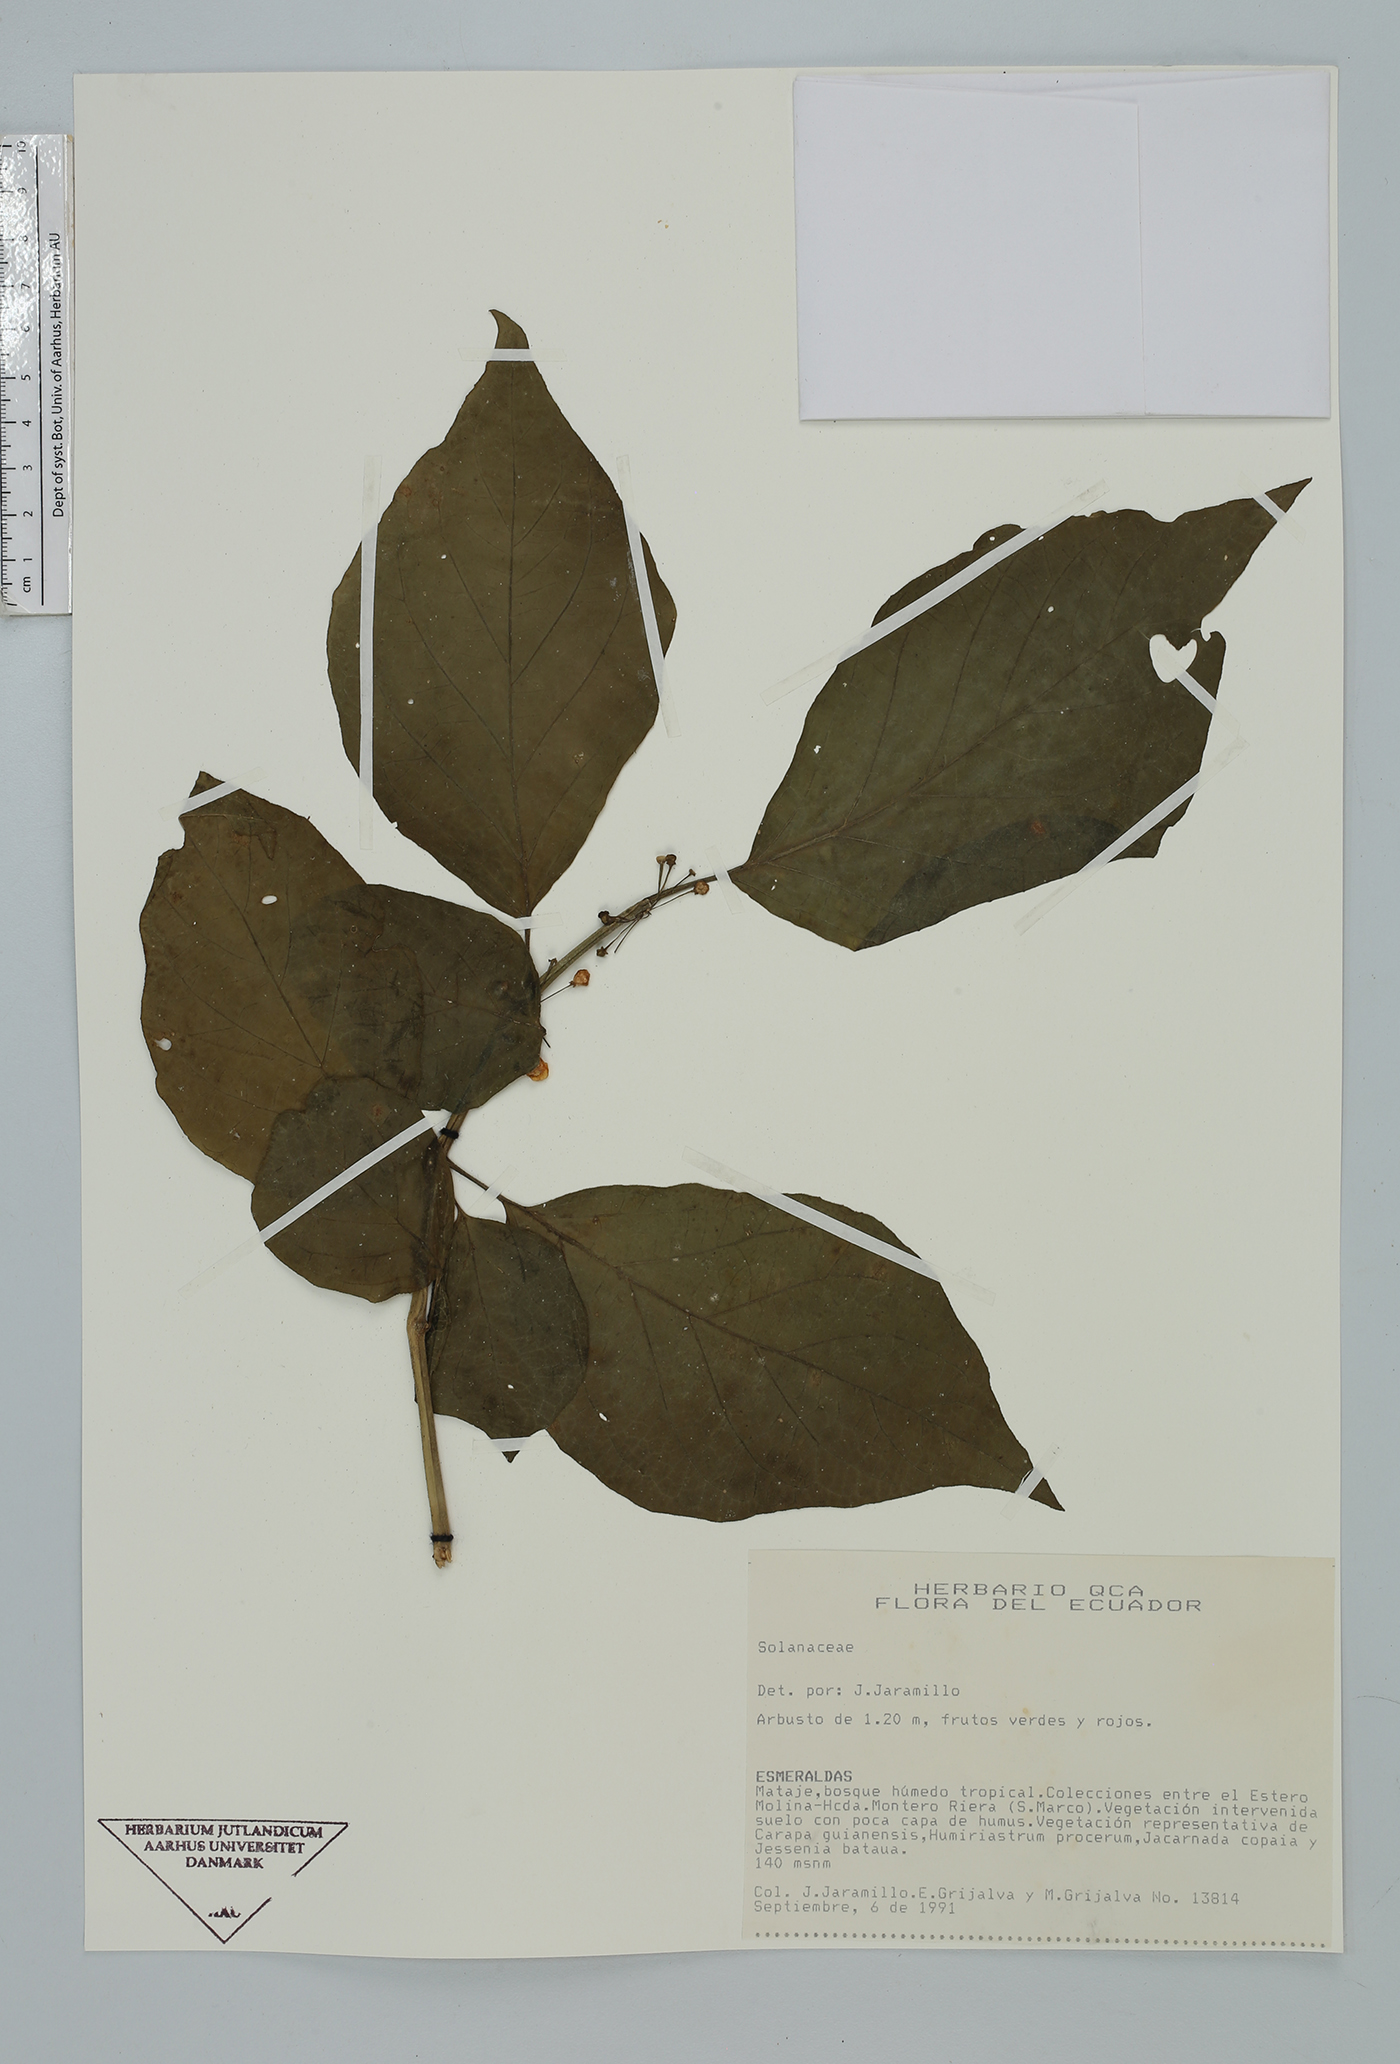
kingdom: Plantae
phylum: Tracheophyta
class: Magnoliopsida
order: Solanales
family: Solanaceae
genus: Witheringia
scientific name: Witheringia
